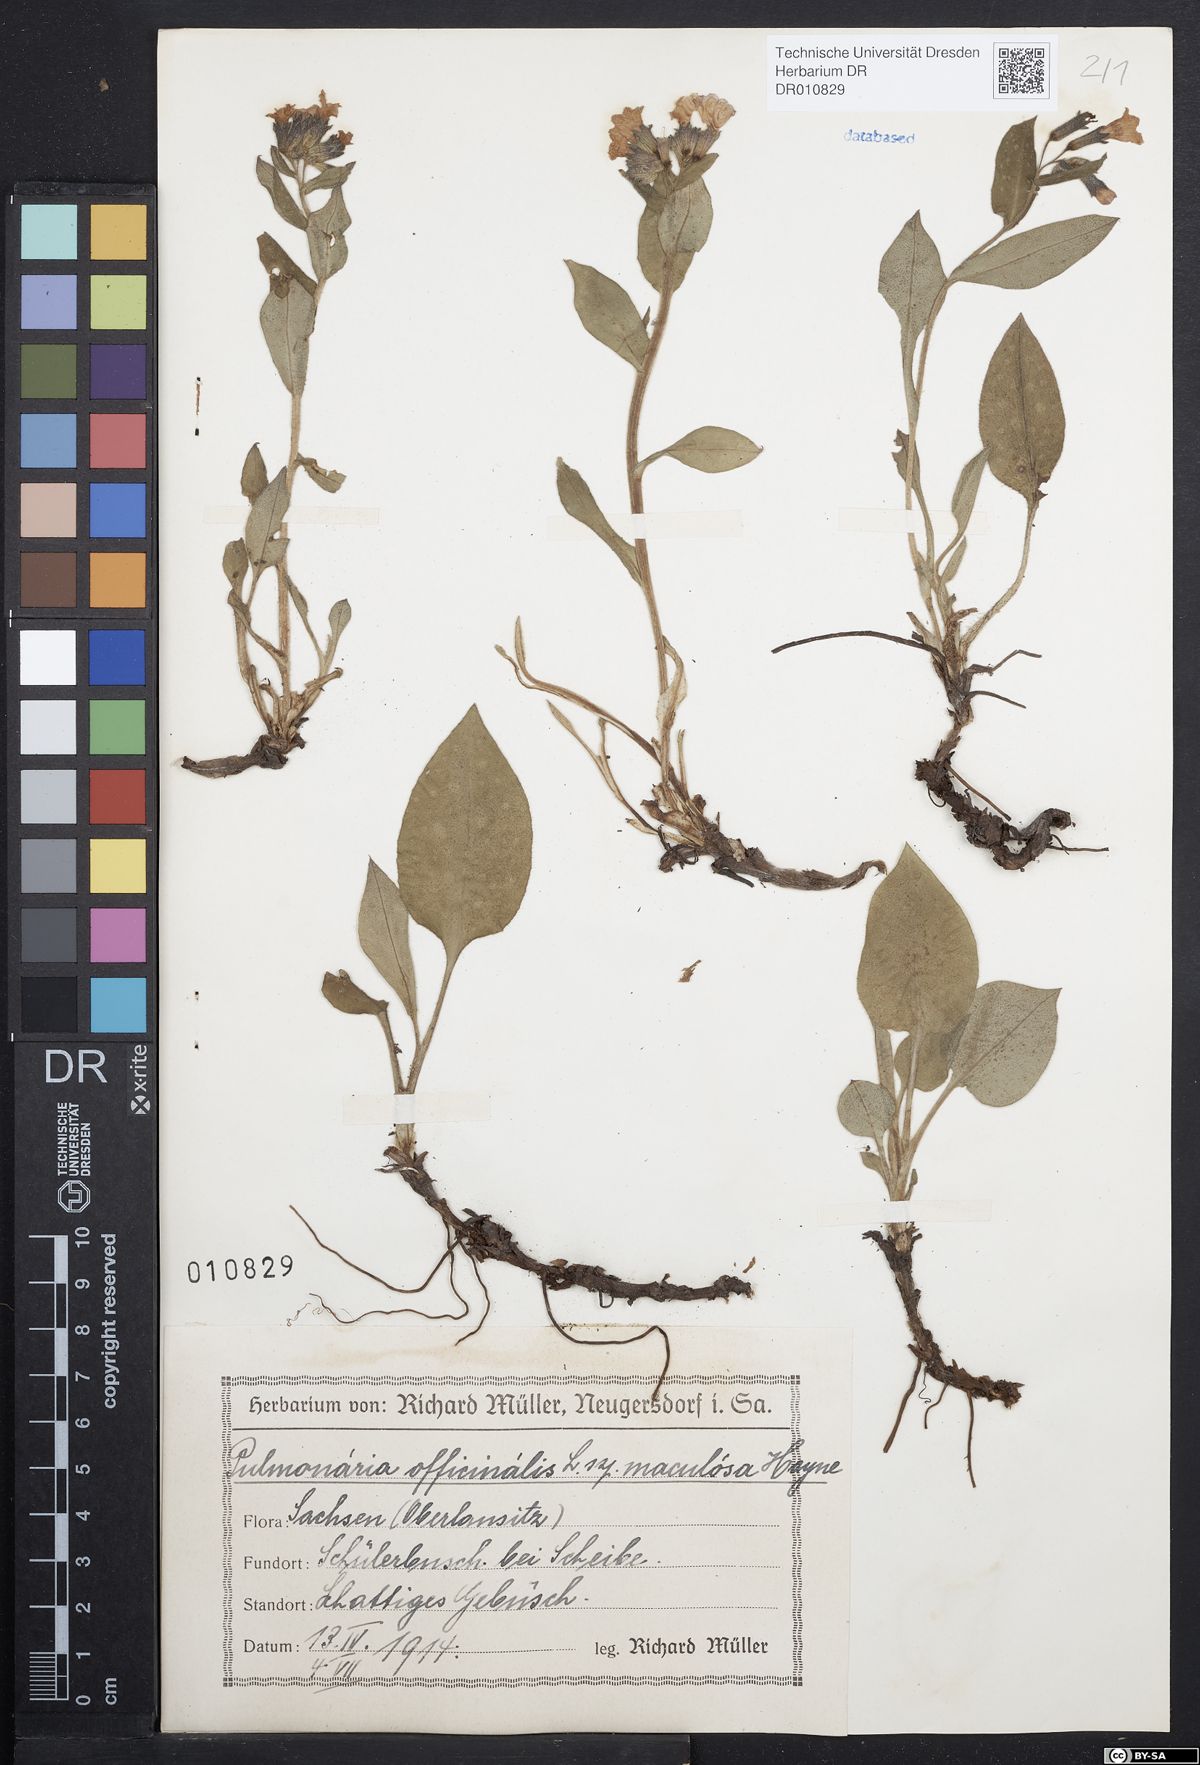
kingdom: Plantae
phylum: Tracheophyta
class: Magnoliopsida
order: Boraginales
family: Boraginaceae
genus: Pulmonaria
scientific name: Pulmonaria officinalis
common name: Lungwort
